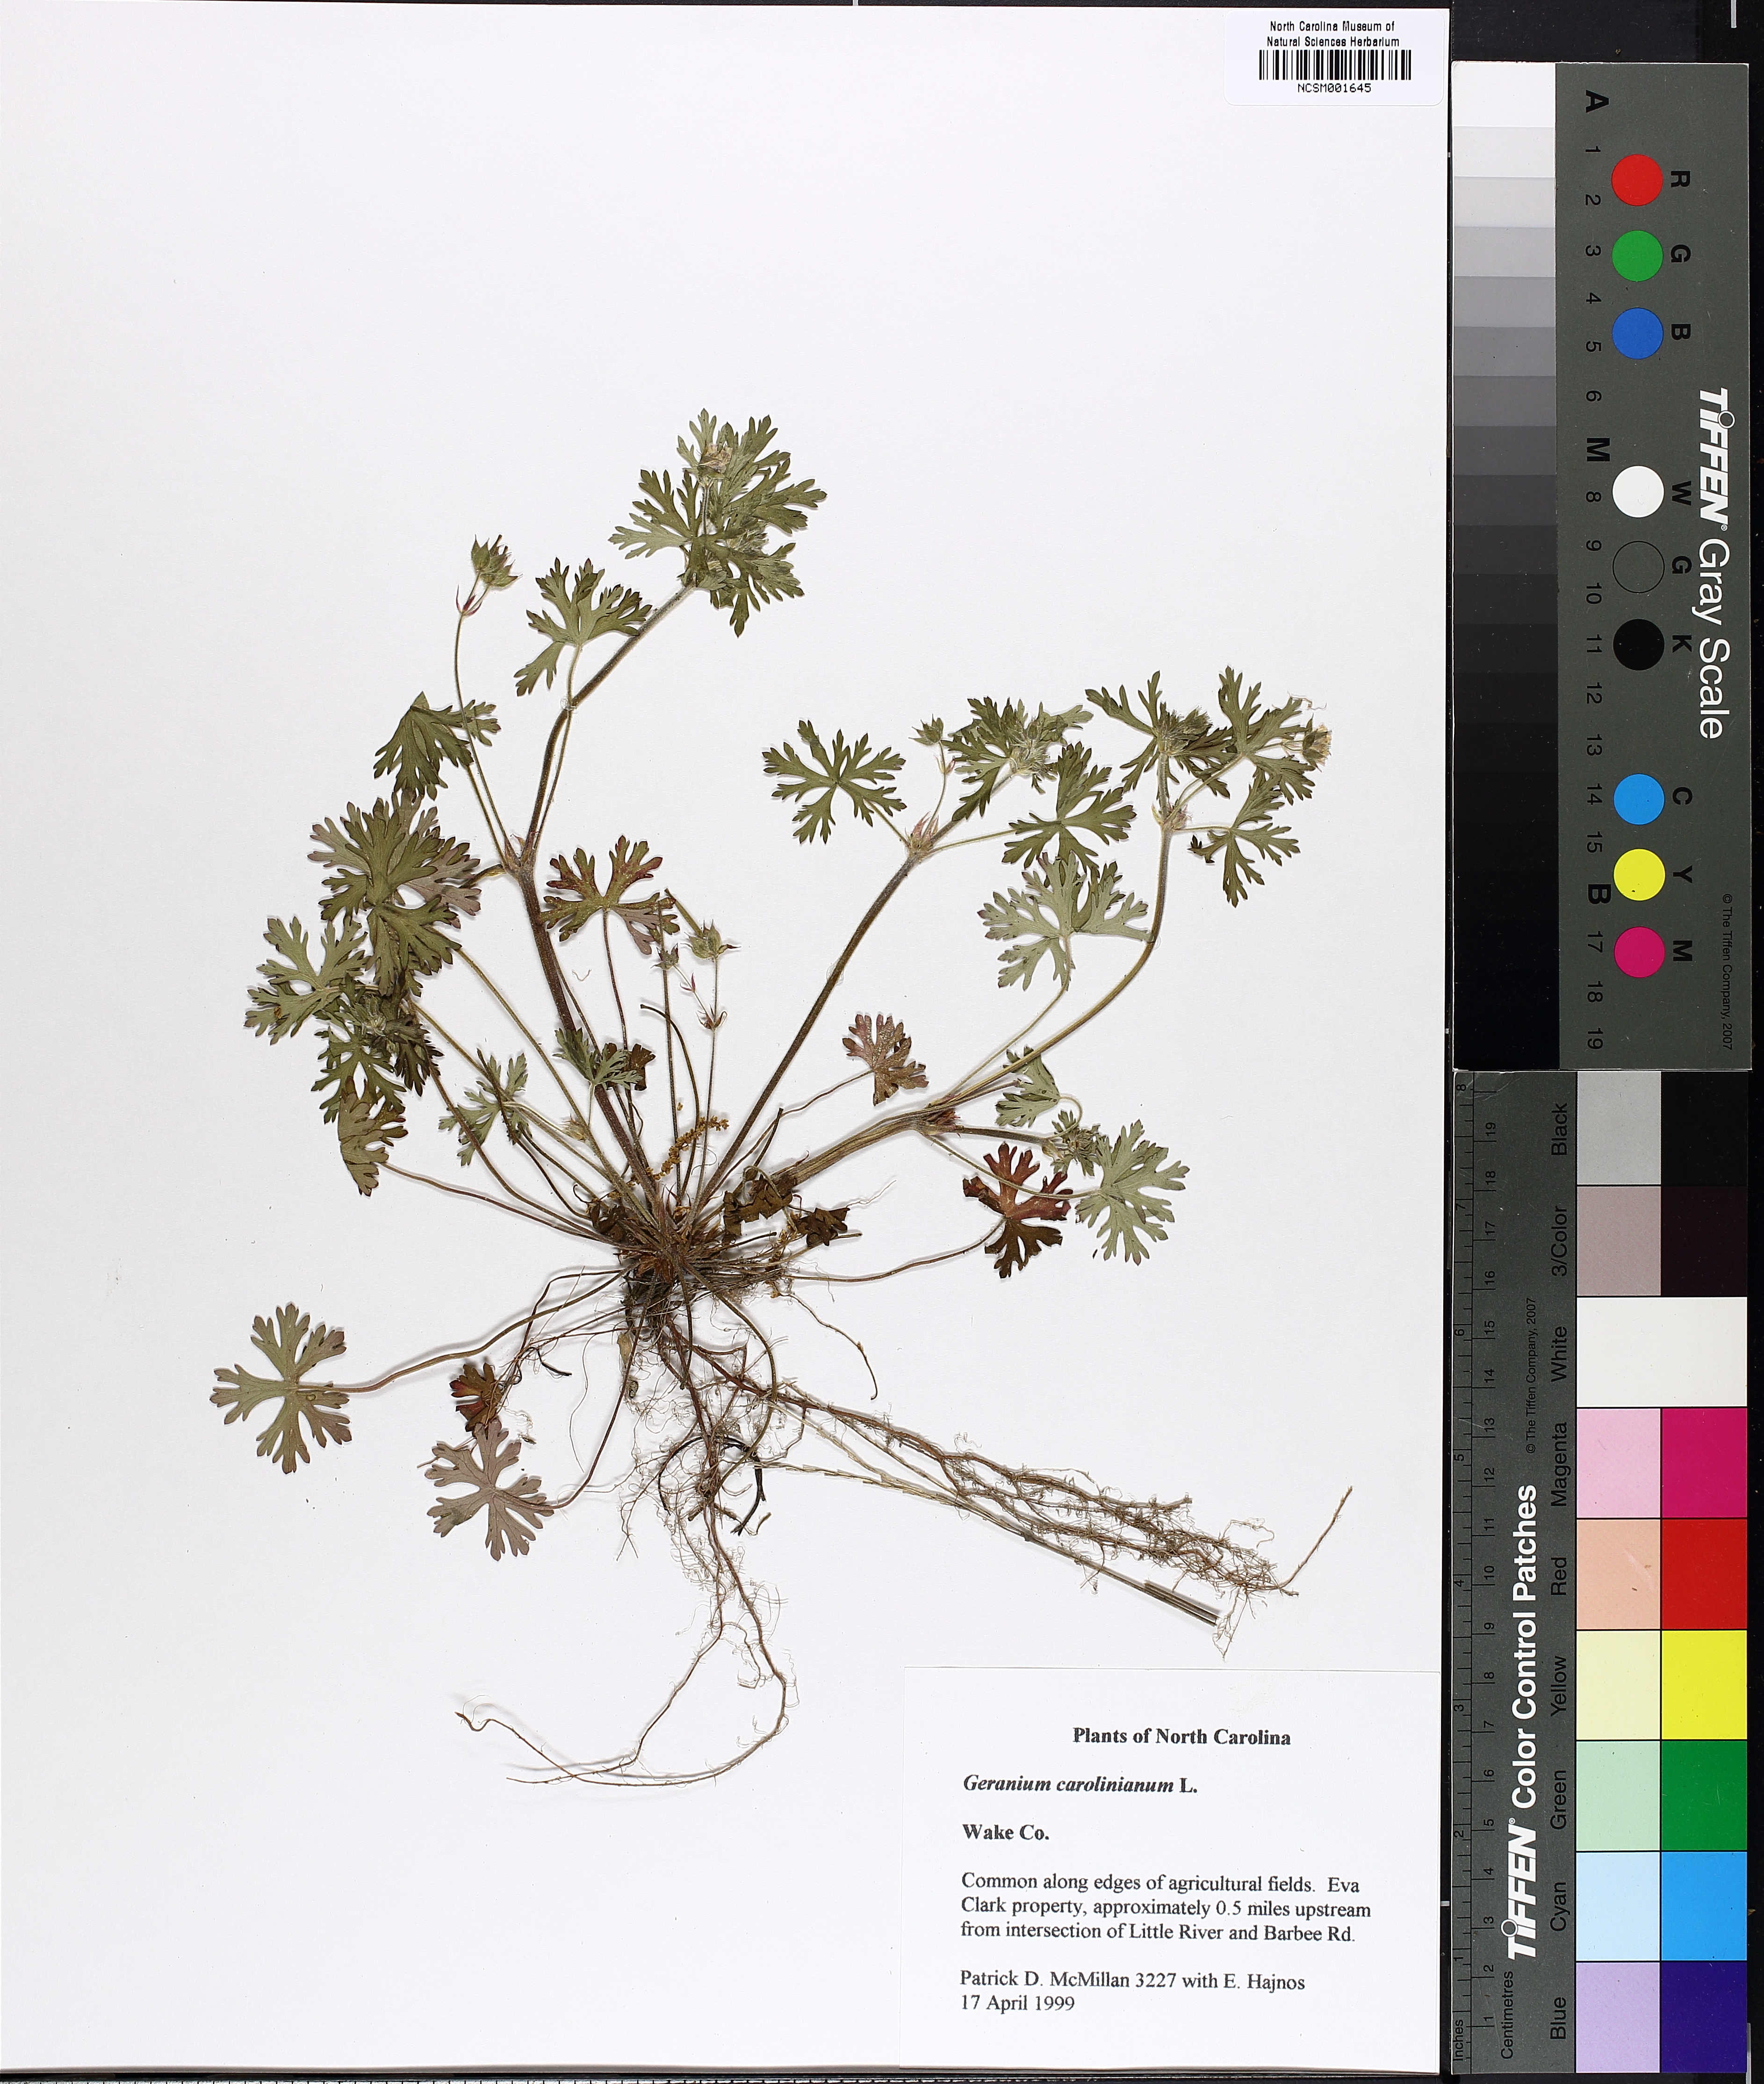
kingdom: Plantae
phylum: Tracheophyta
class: Magnoliopsida
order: Geraniales
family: Geraniaceae
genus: Geranium
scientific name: Geranium carolinianum
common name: Carolina crane's-bill
